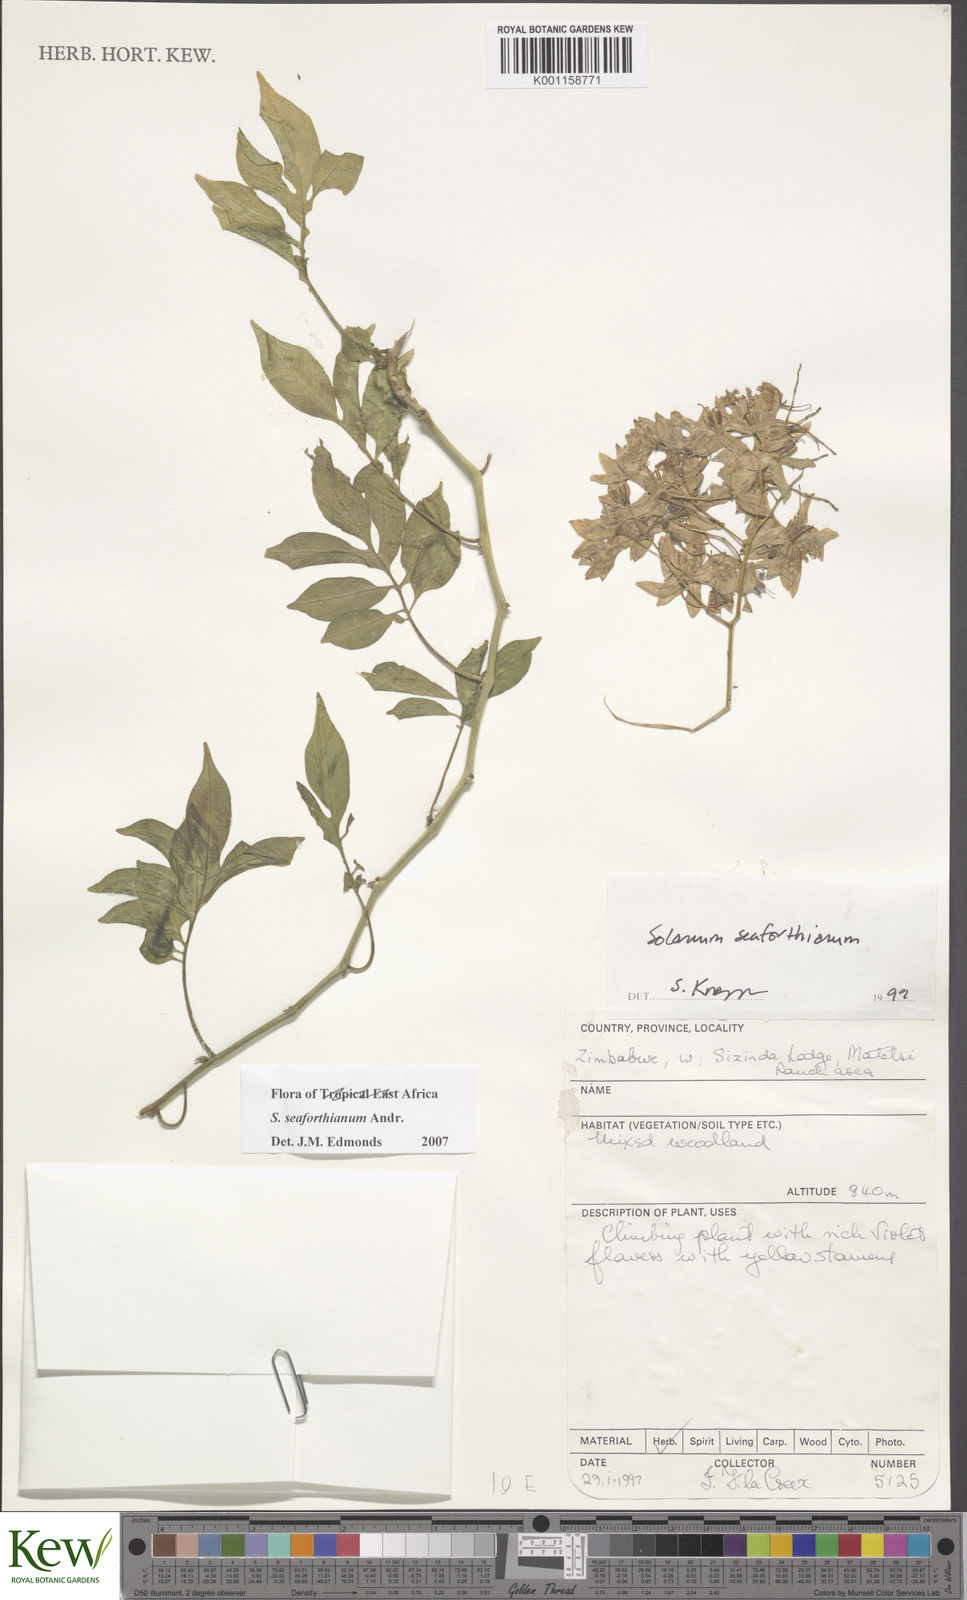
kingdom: Plantae
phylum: Tracheophyta
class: Magnoliopsida
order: Solanales
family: Solanaceae
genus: Solanum
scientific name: Solanum seaforthianum
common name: Brazilian nightshade
